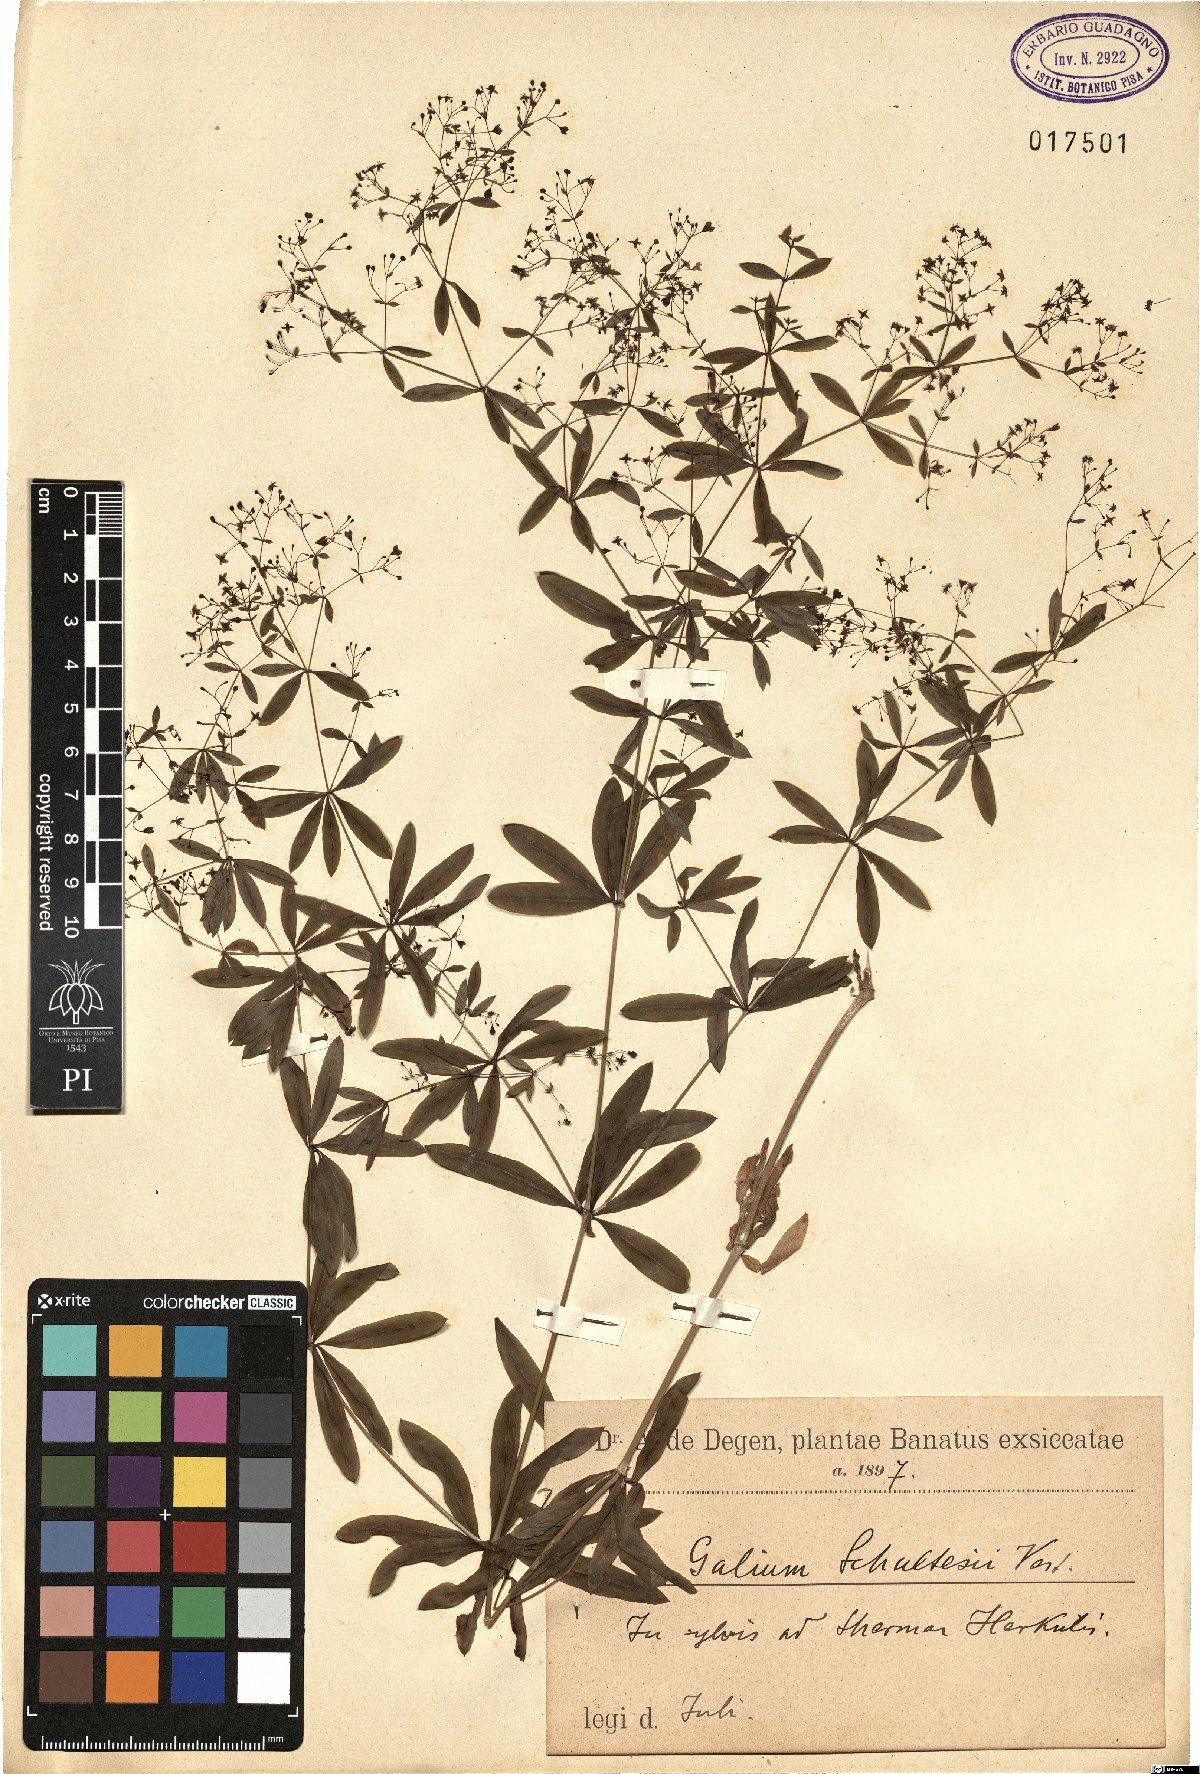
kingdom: Plantae
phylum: Tracheophyta
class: Magnoliopsida
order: Gentianales
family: Rubiaceae
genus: Galium
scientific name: Galium intermedium
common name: Bedstraw
